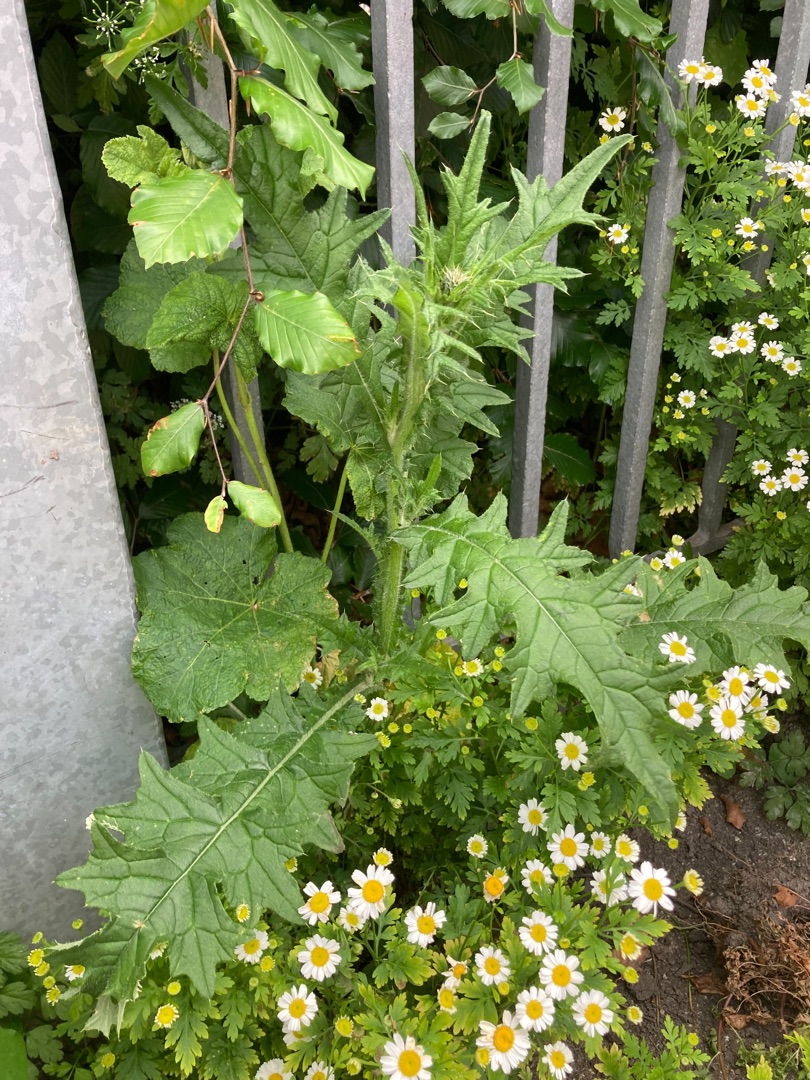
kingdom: Plantae
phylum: Tracheophyta
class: Magnoliopsida
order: Asterales
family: Asteraceae
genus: Cirsium
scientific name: Cirsium vulgare
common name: Horse-tidsel
